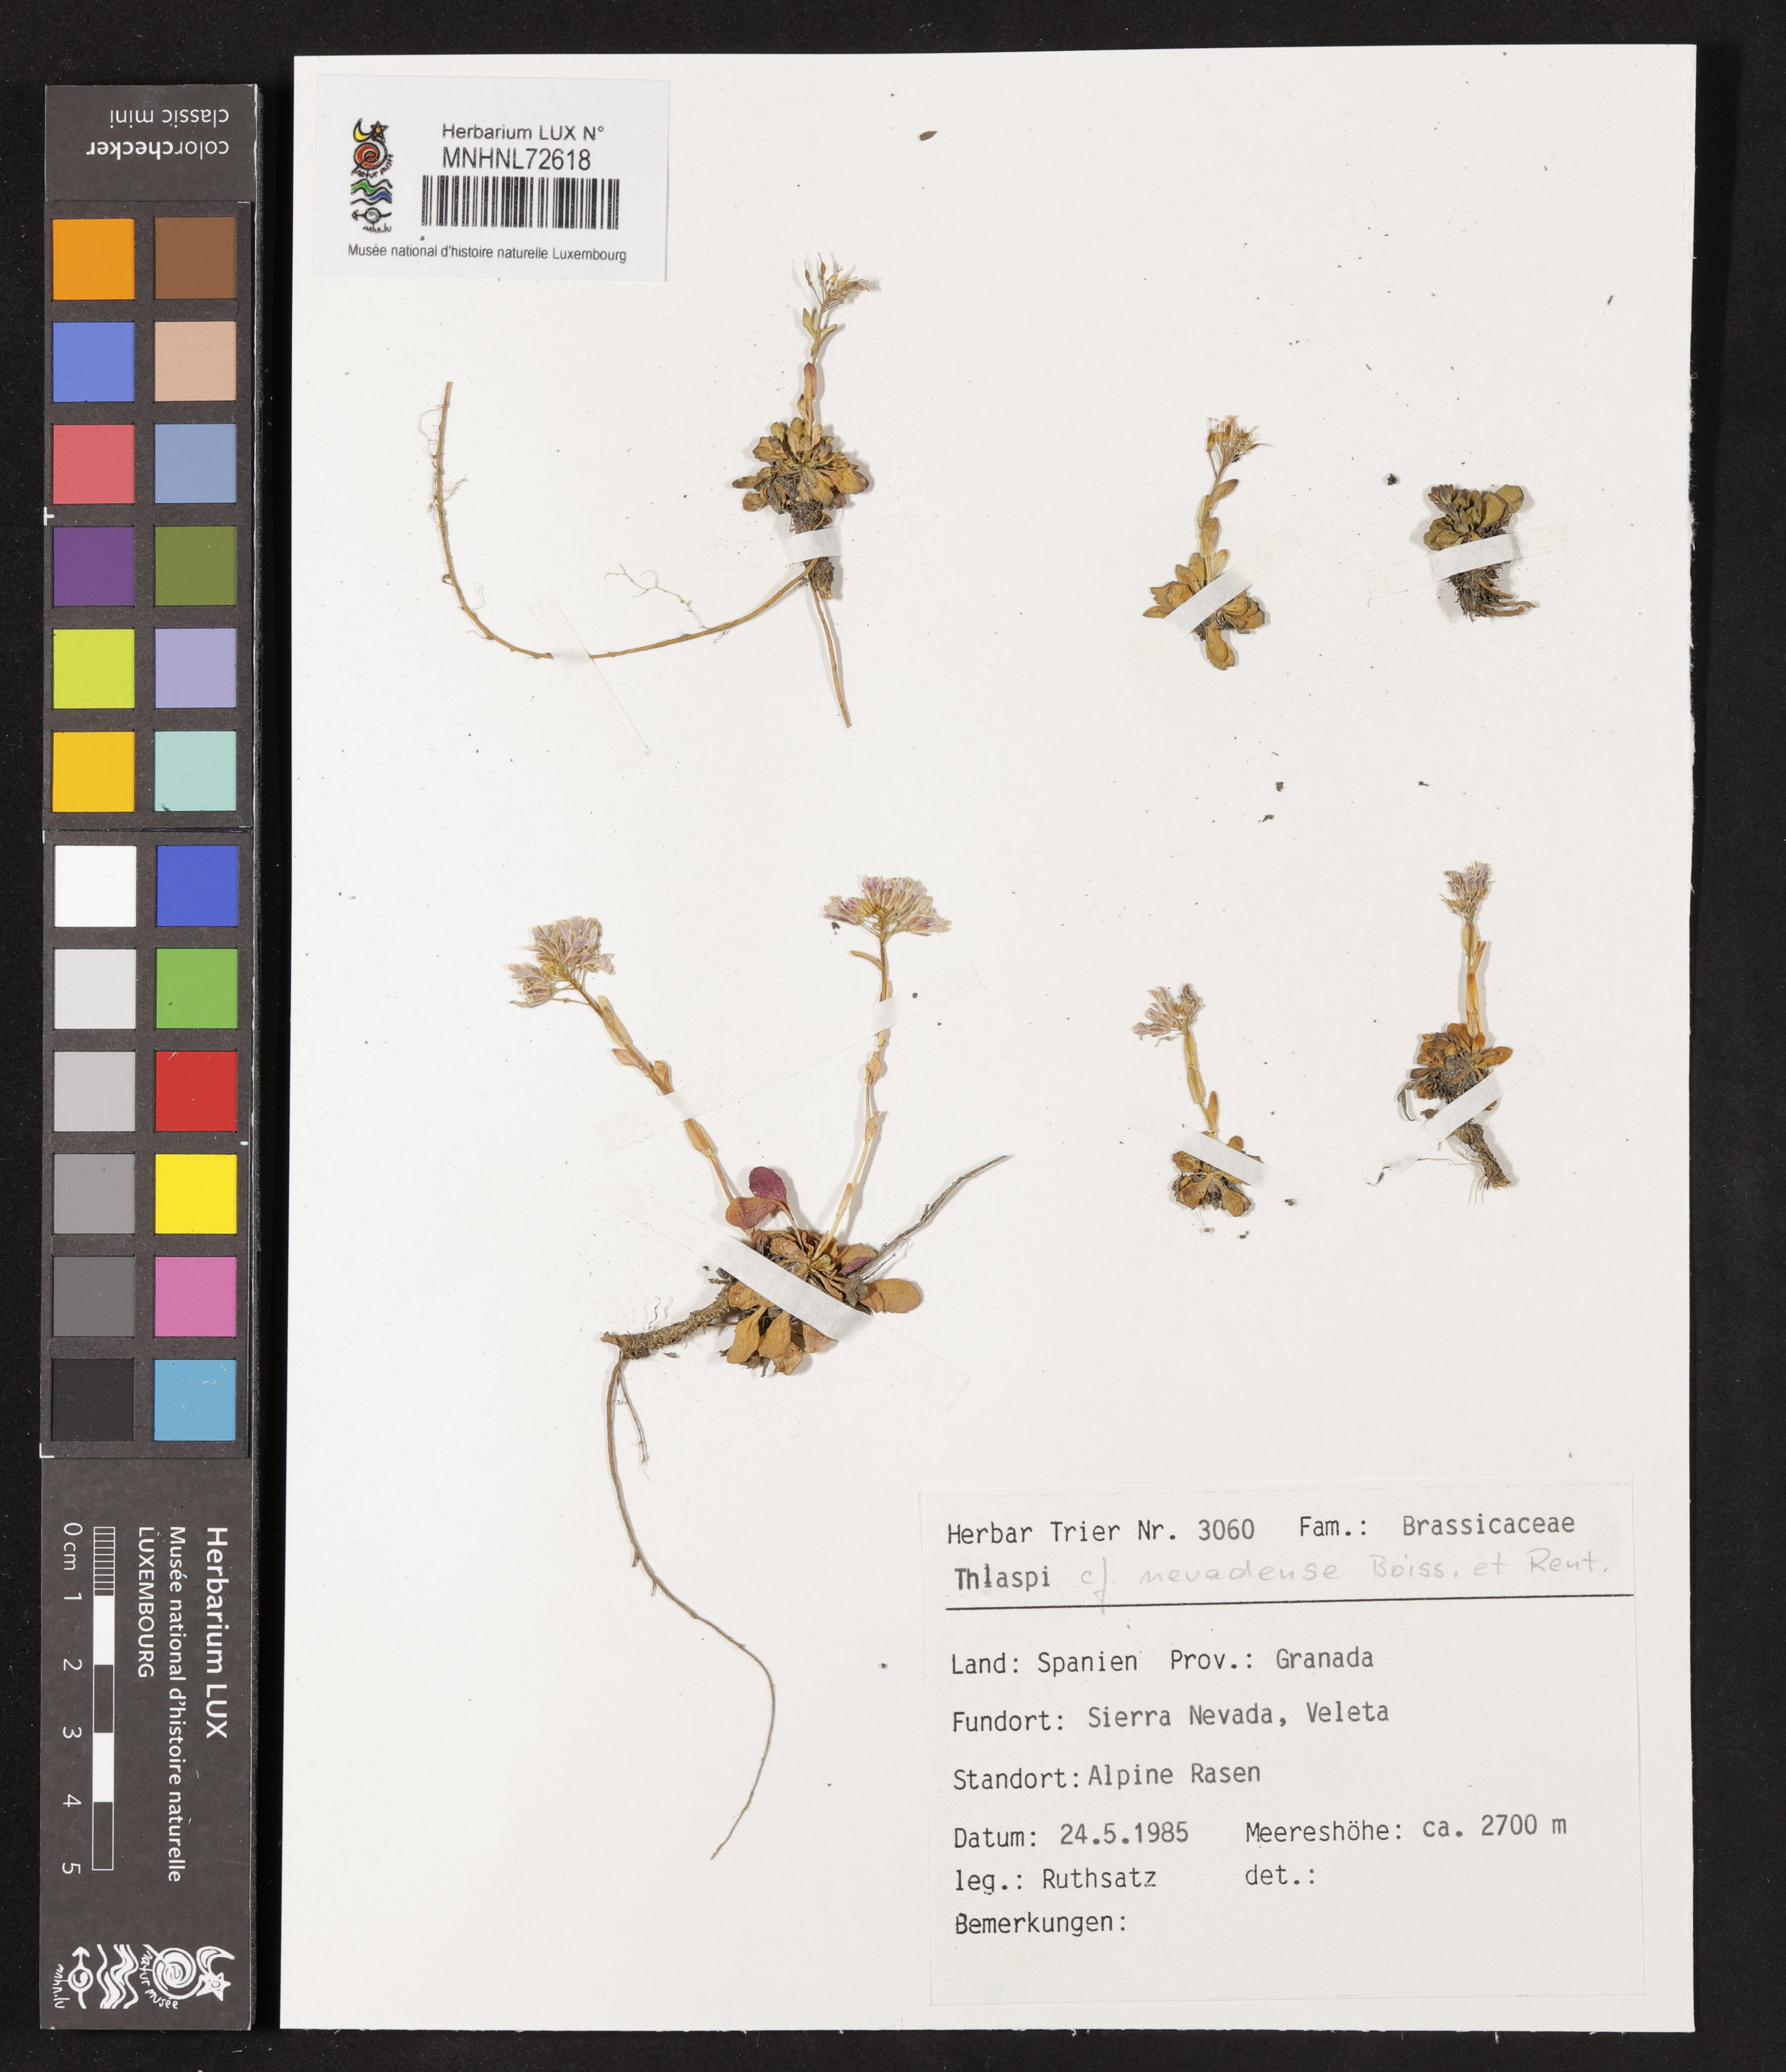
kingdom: Plantae
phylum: Tracheophyta
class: Magnoliopsida
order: Brassicales
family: Brassicaceae
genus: Noccaea
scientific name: Noccaea nevadensis
